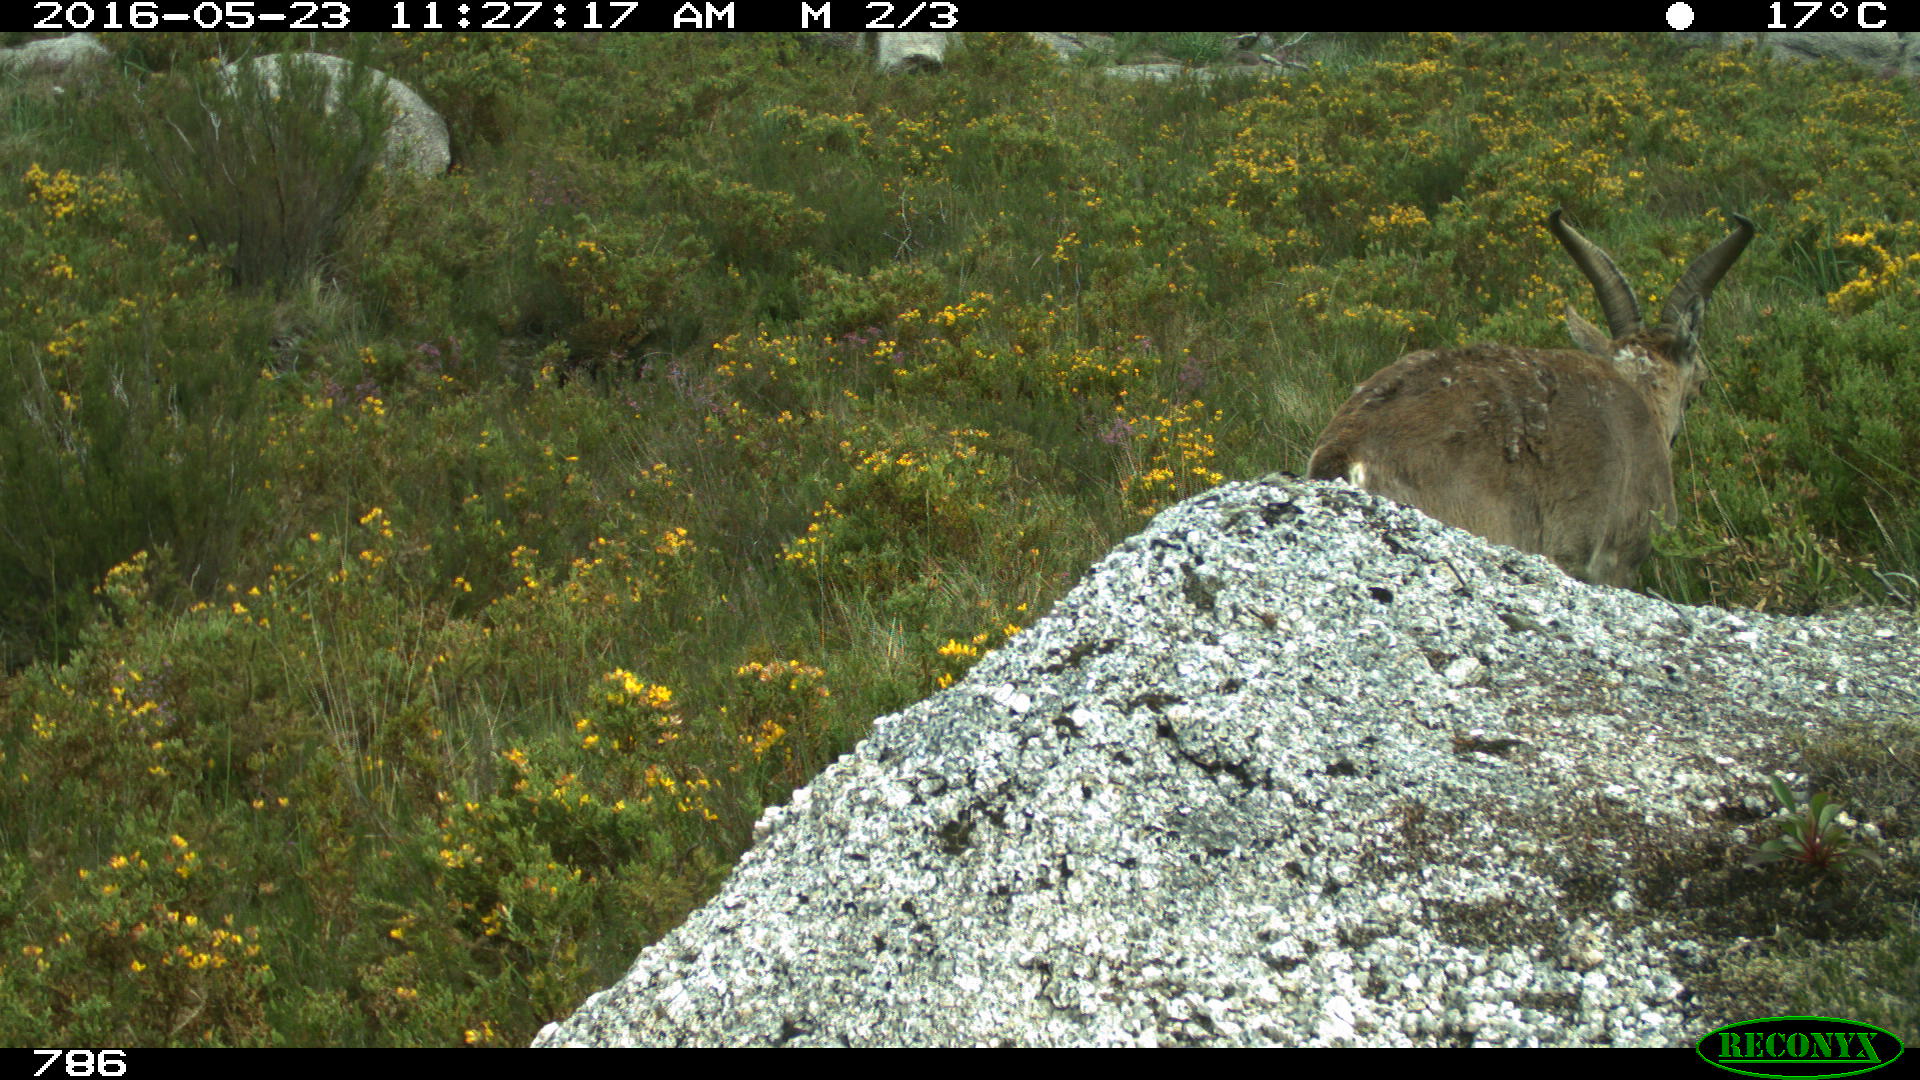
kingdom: Animalia
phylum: Chordata
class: Mammalia
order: Artiodactyla
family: Bovidae
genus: Capra
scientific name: Capra pyrenaica
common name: Spanish ibex
